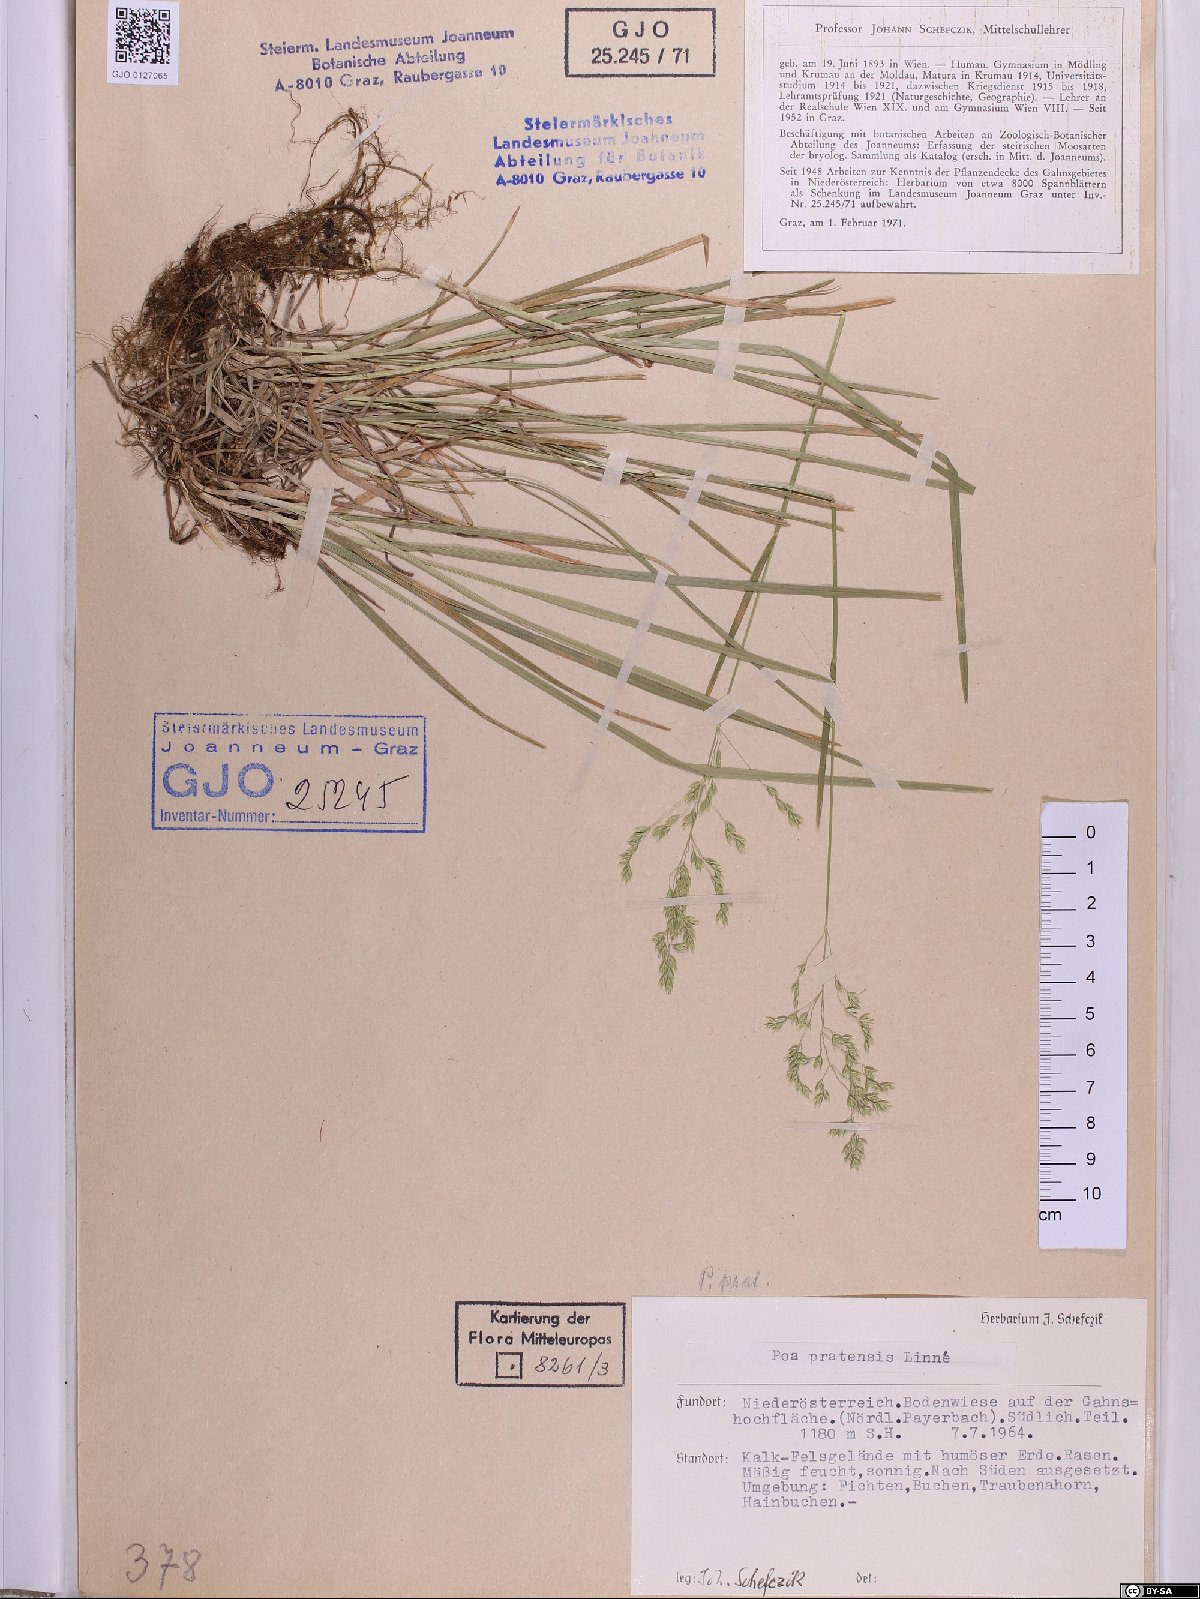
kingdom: Plantae
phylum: Tracheophyta
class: Liliopsida
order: Poales
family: Poaceae
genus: Poa
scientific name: Poa pratensis
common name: Kentucky bluegrass
